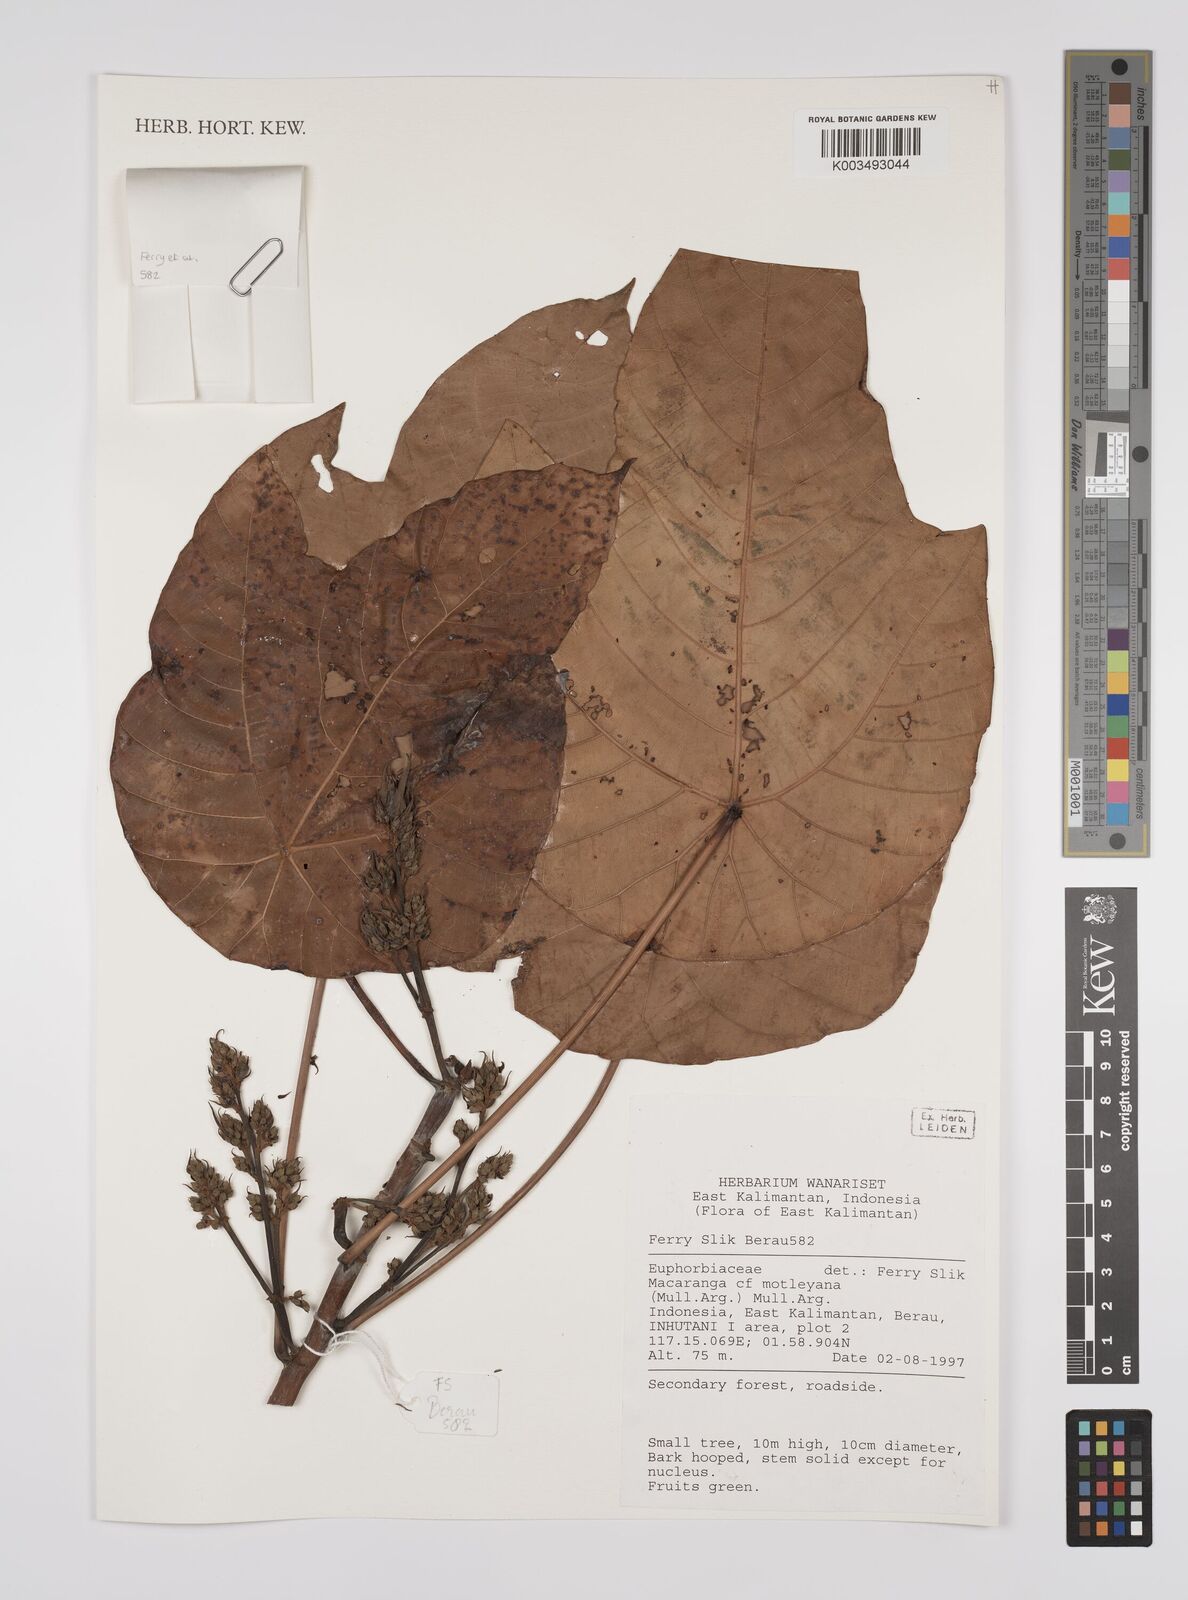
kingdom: Plantae
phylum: Tracheophyta
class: Magnoliopsida
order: Malpighiales
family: Euphorbiaceae
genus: Macaranga
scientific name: Macaranga motleyana
